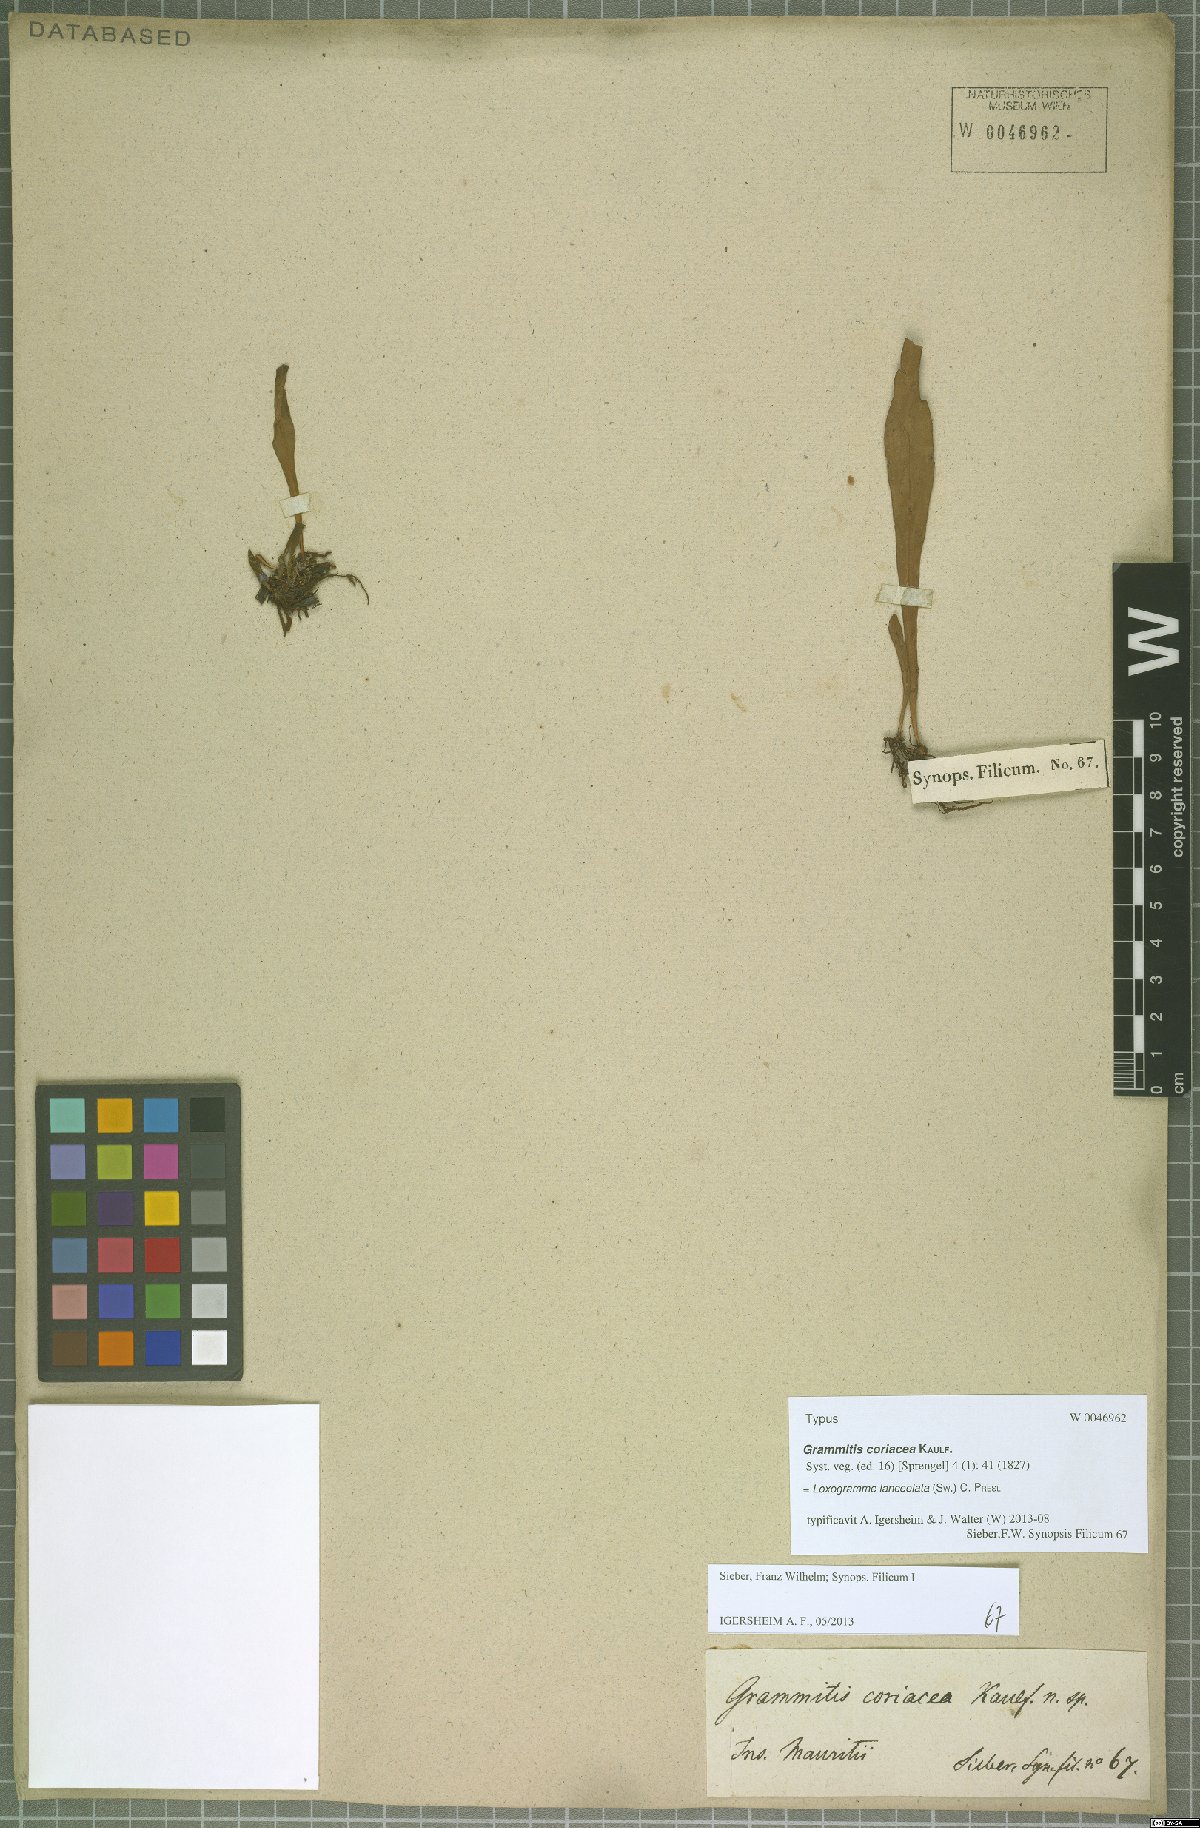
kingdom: Plantae
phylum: Tracheophyta
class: Polypodiopsida
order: Polypodiales
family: Polypodiaceae
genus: Loxogramme
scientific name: Loxogramme lanceolata
